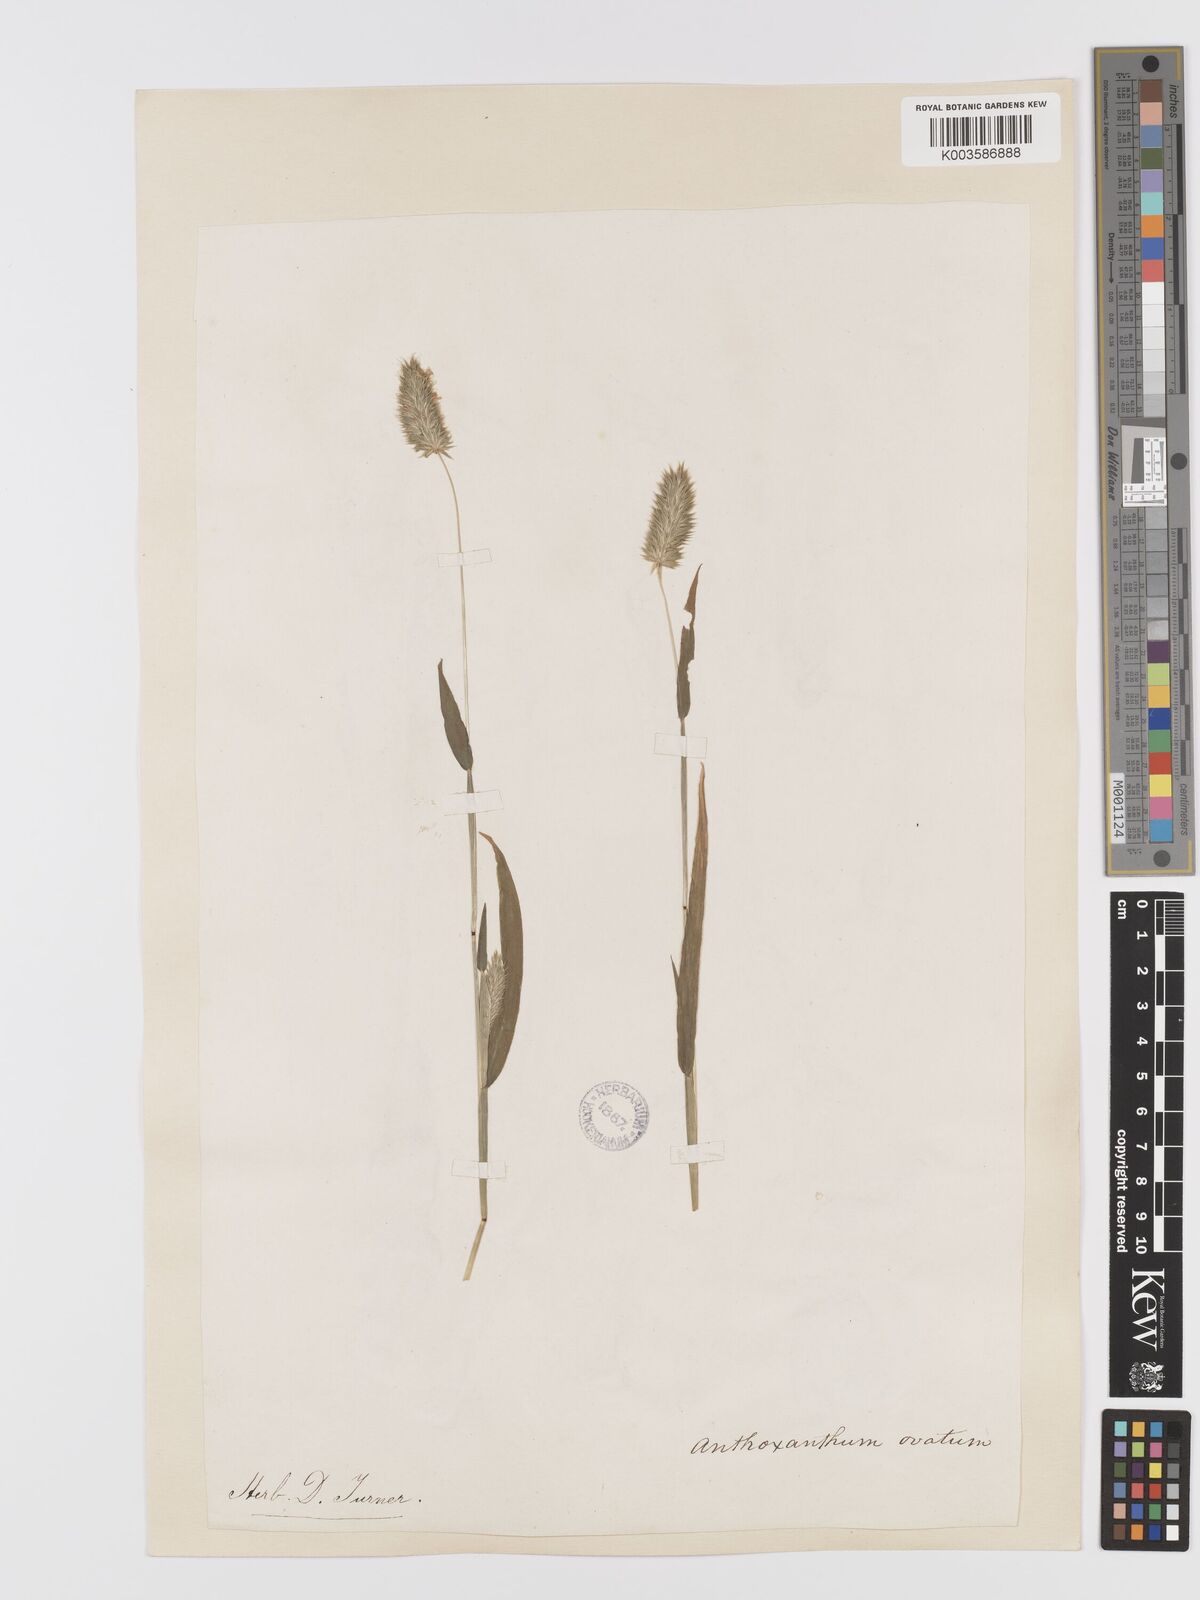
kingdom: Plantae
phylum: Tracheophyta
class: Liliopsida
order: Poales
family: Poaceae
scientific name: Poaceae
